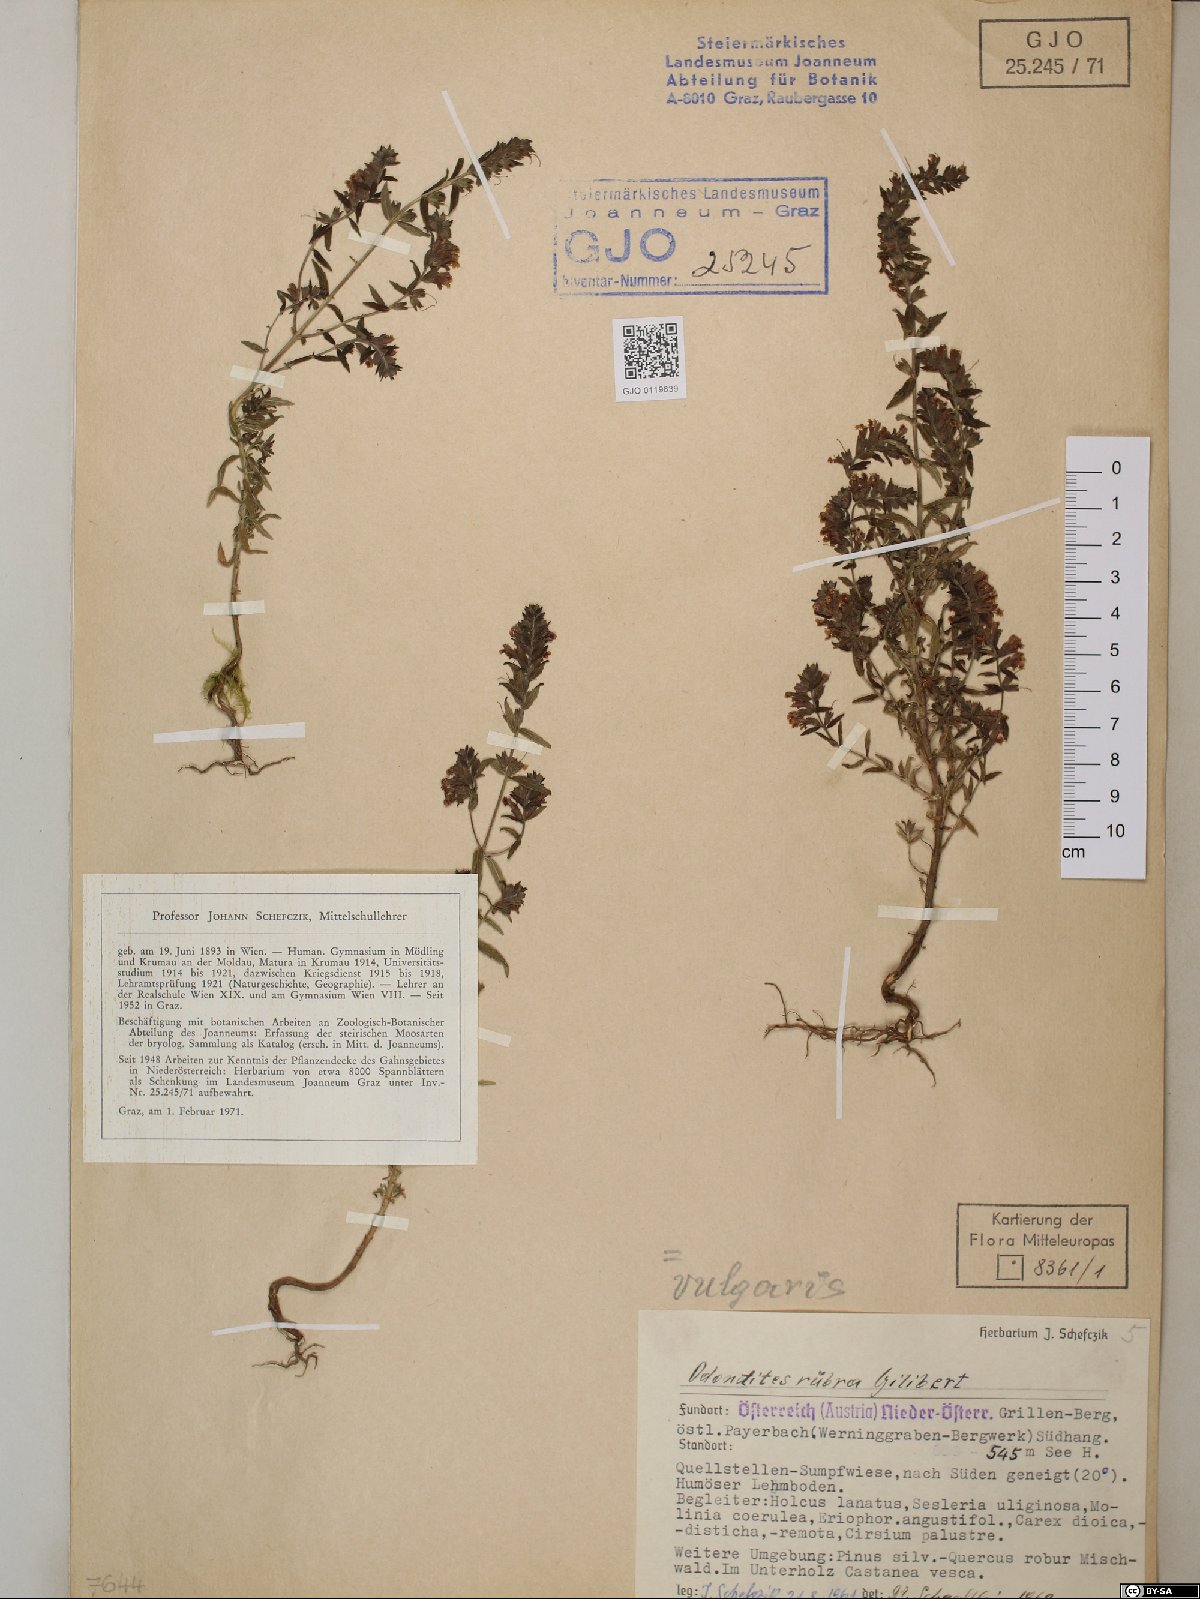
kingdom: Plantae
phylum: Tracheophyta
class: Magnoliopsida
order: Lamiales
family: Orobanchaceae
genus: Odontites
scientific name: Odontites vulgaris
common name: Broomrape
